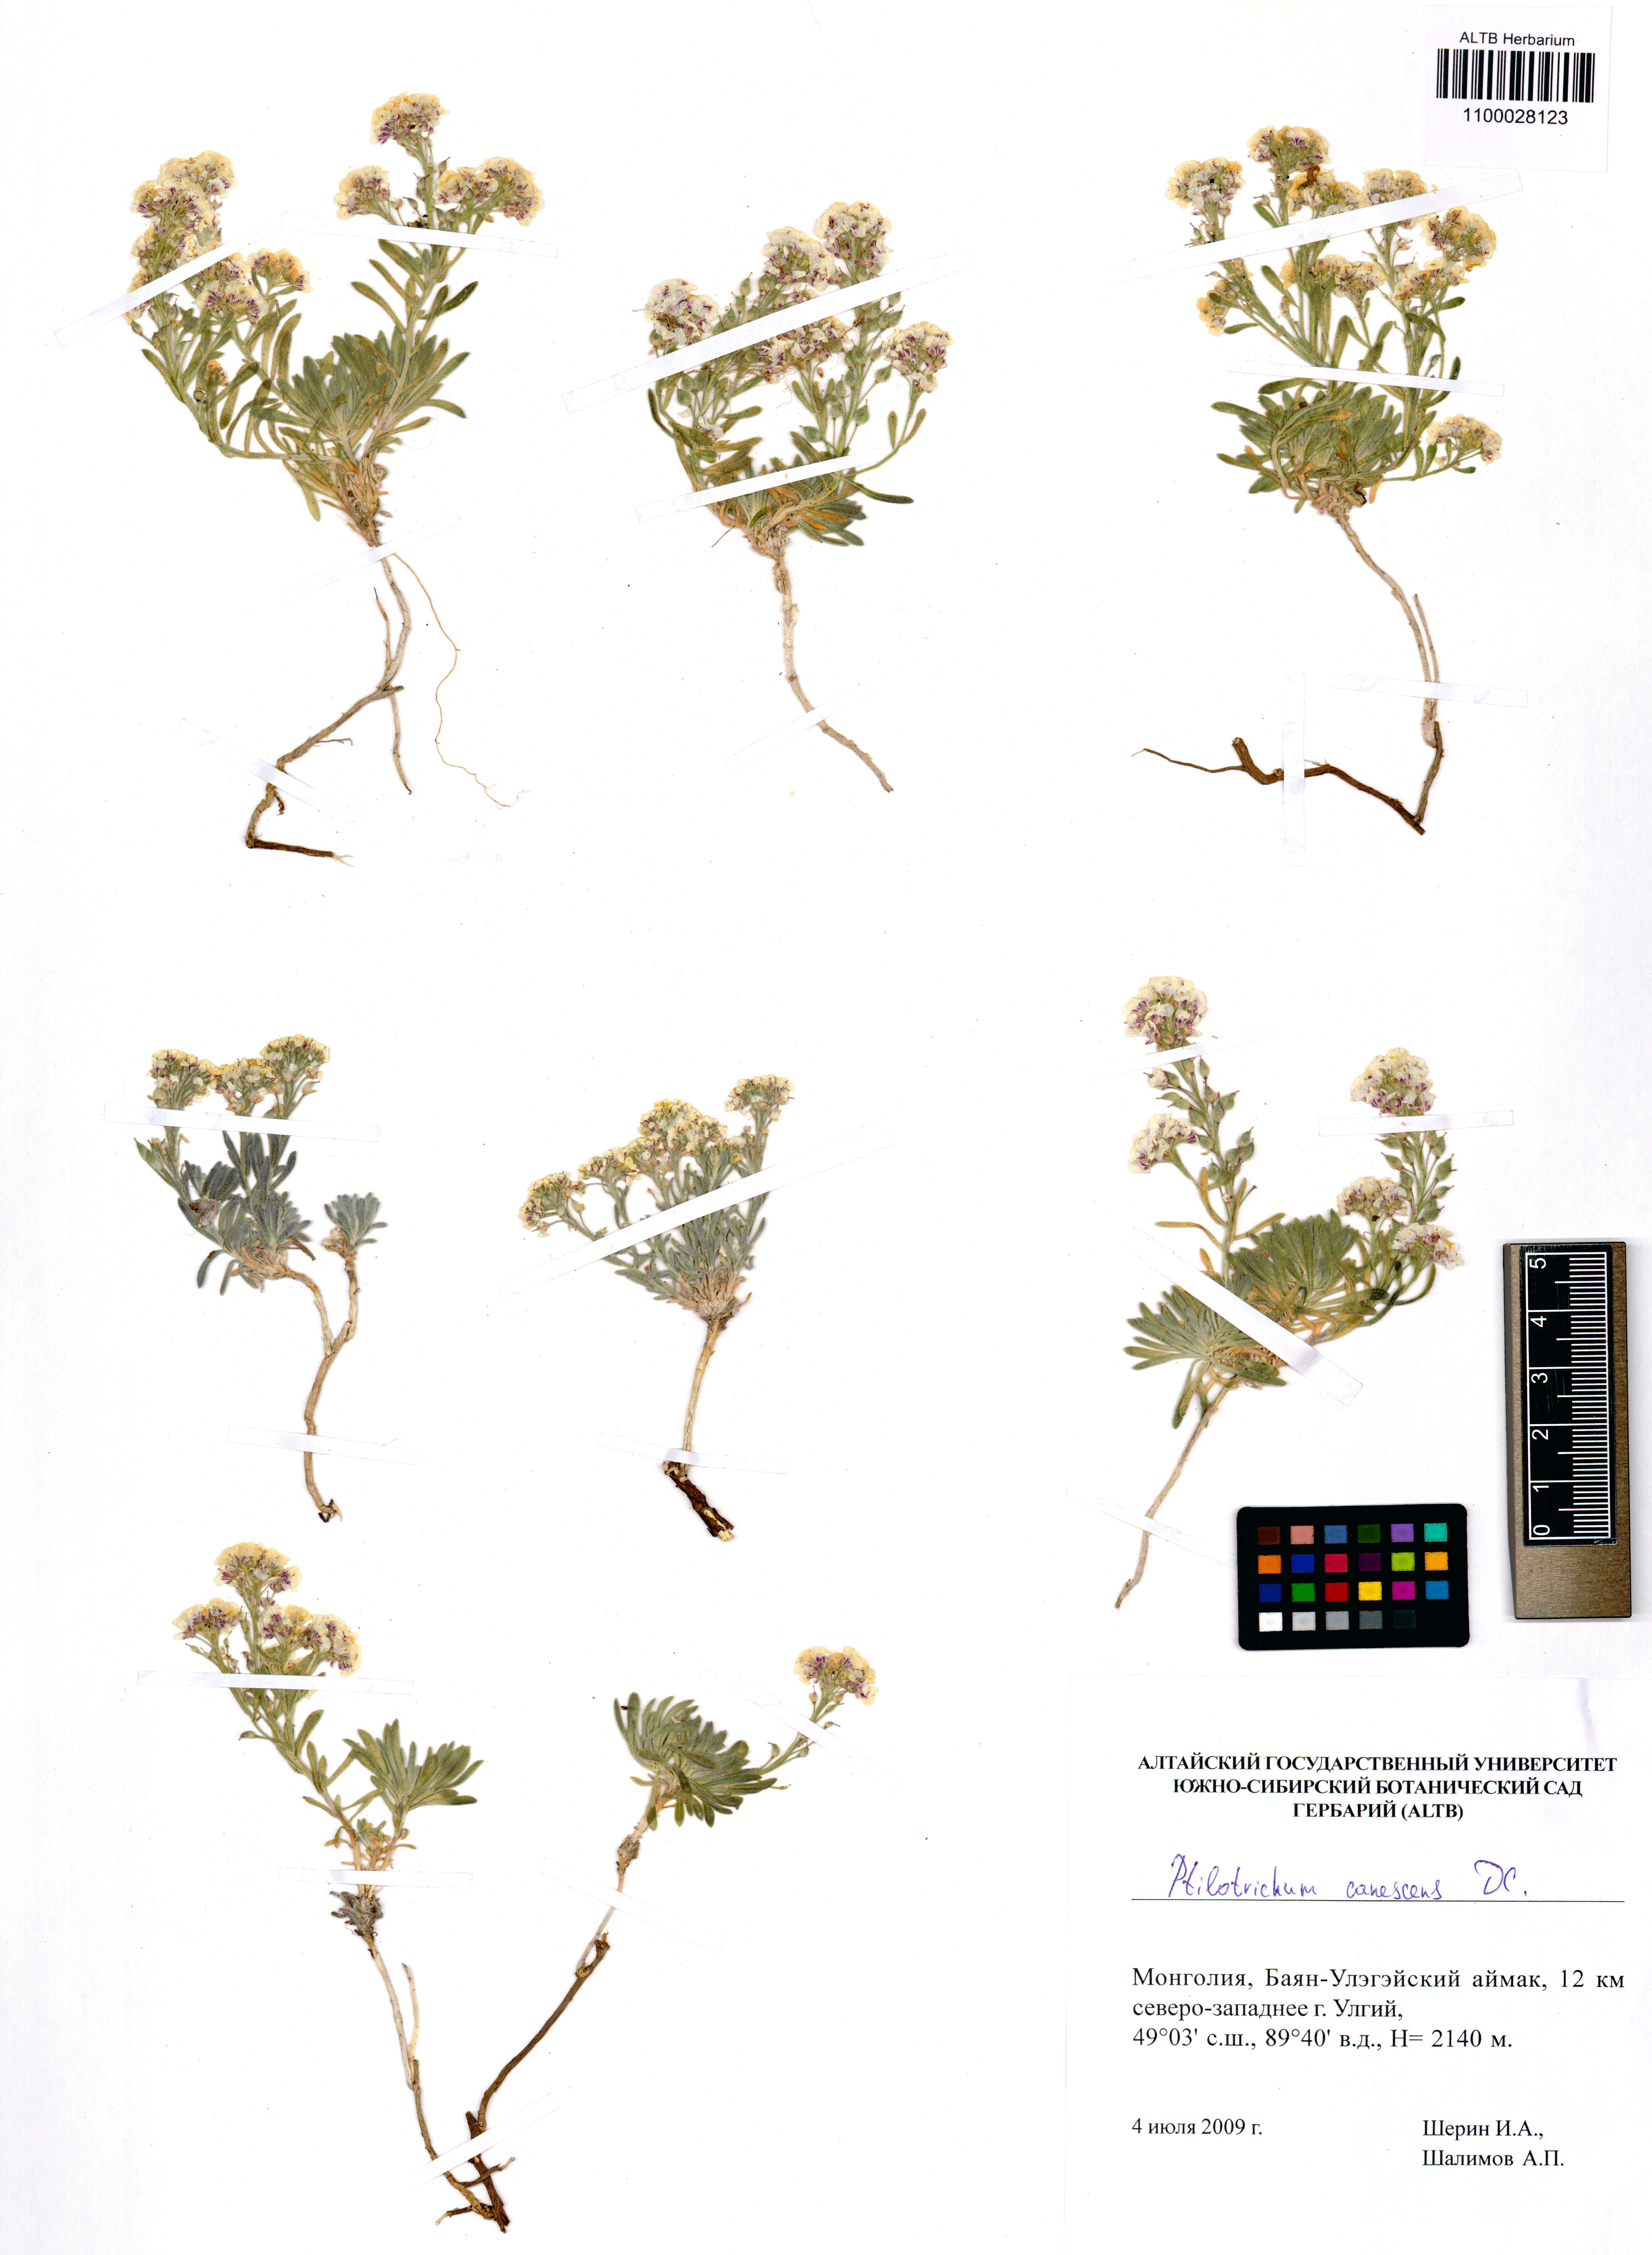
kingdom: Plantae
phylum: Tracheophyta
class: Magnoliopsida
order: Brassicales
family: Brassicaceae
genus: Stevenia
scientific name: Stevenia canescens
